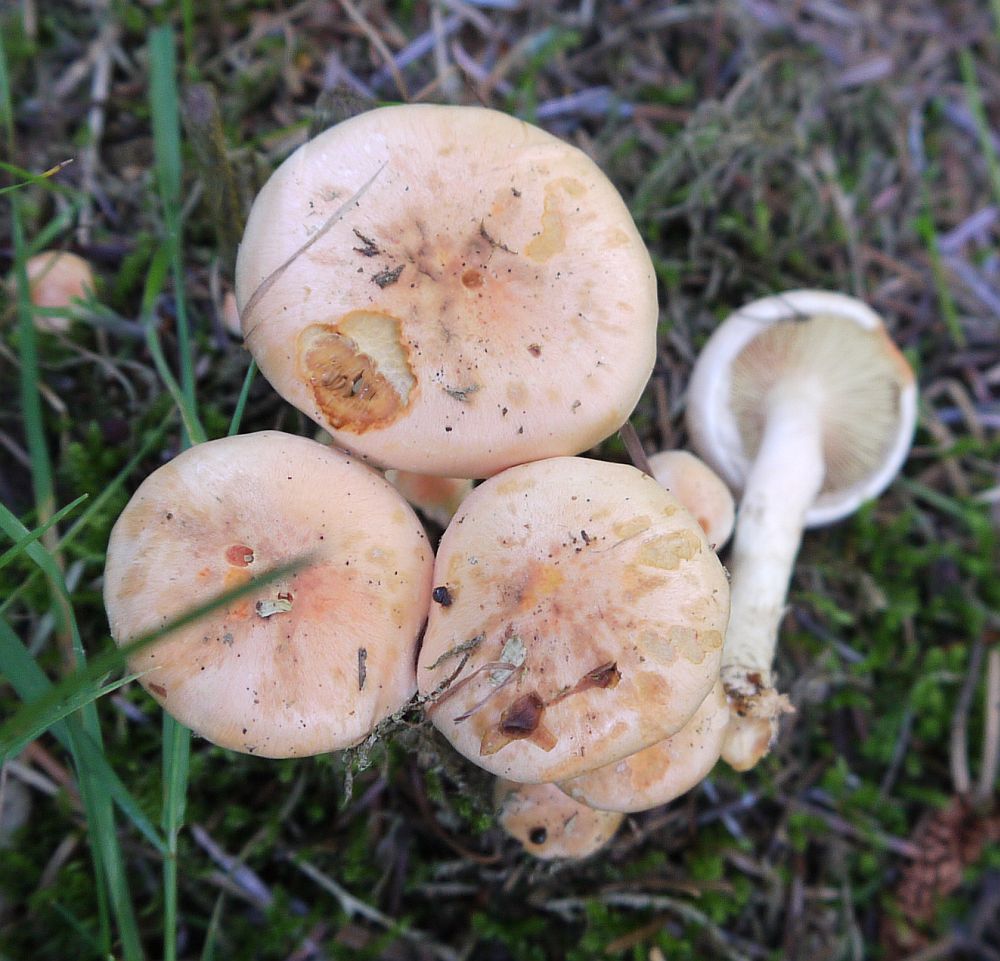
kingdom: Fungi
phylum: Basidiomycota
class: Agaricomycetes
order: Agaricales
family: Strophariaceae
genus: Pyrrhulomyces
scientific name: Pyrrhulomyces astragalinus
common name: safran-skælhat
